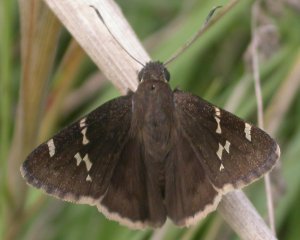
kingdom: Animalia
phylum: Arthropoda
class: Insecta
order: Lepidoptera
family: Hesperiidae
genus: Autochton
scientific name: Autochton
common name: Southern Cloudywing
